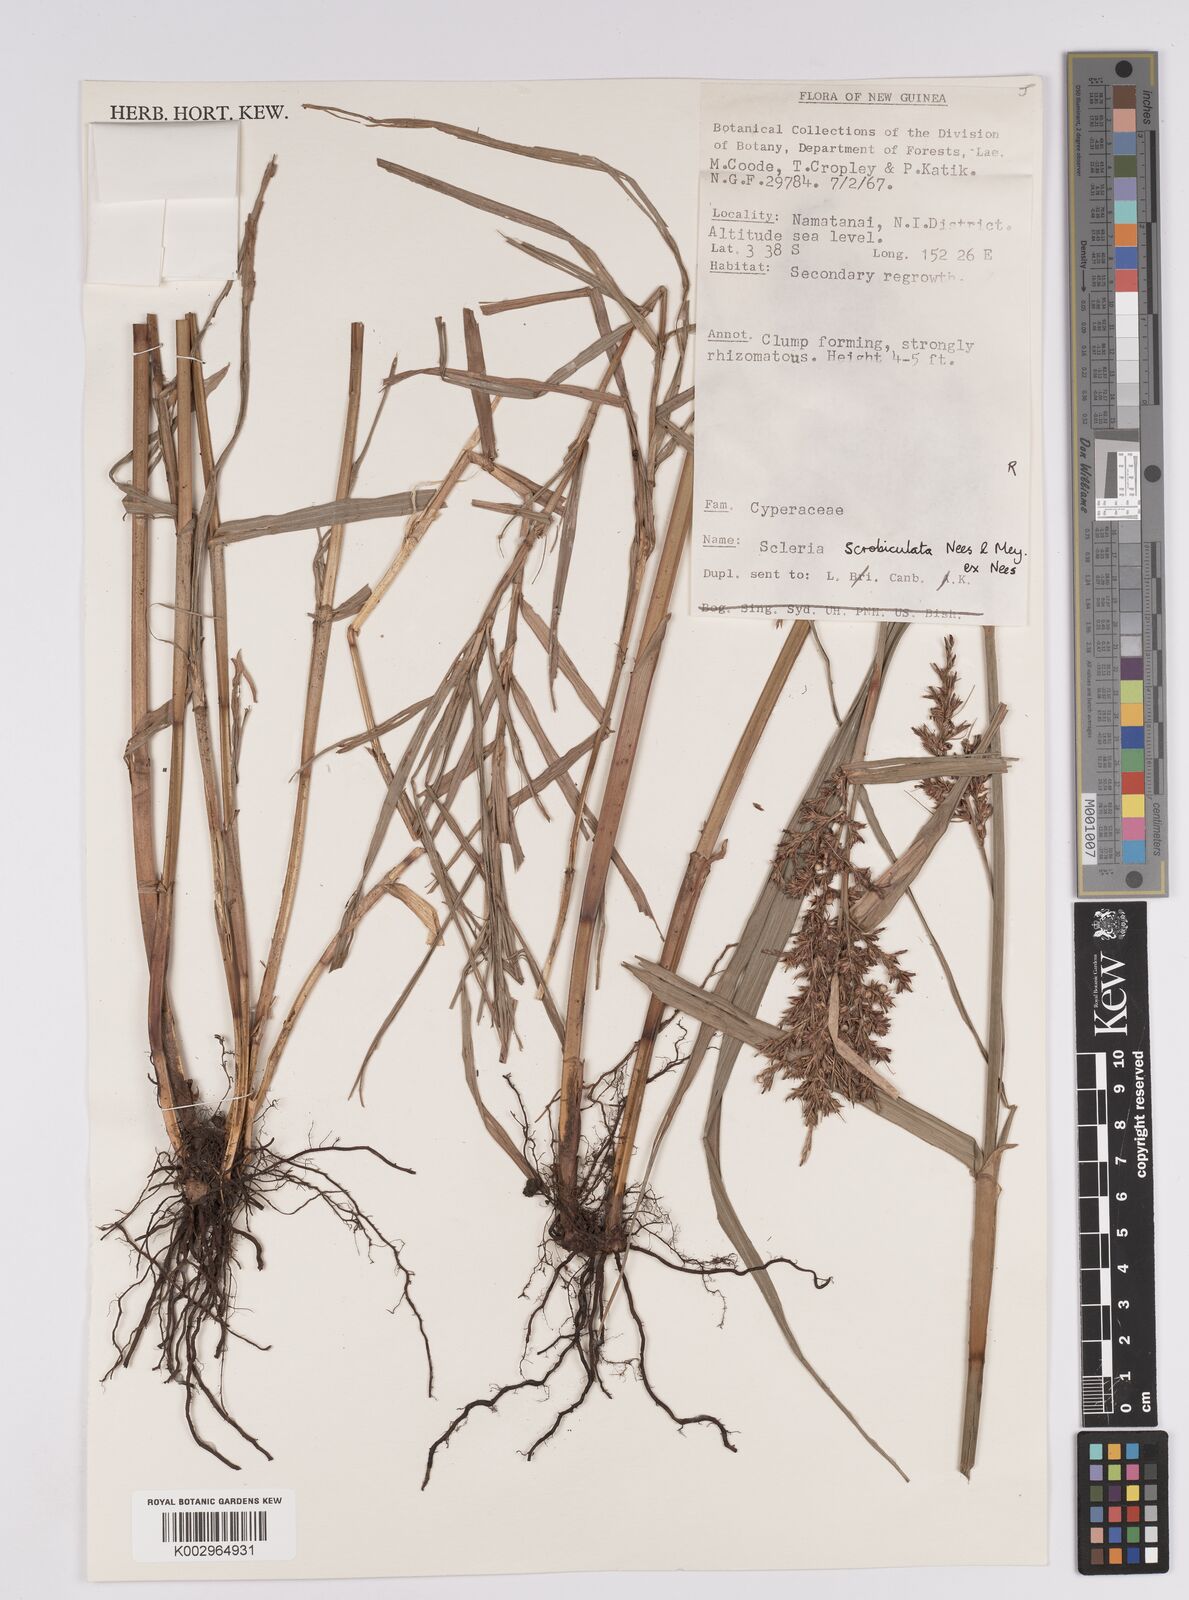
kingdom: Plantae
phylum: Tracheophyta
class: Liliopsida
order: Poales
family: Cyperaceae
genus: Scleria
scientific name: Scleria scrobiculata
